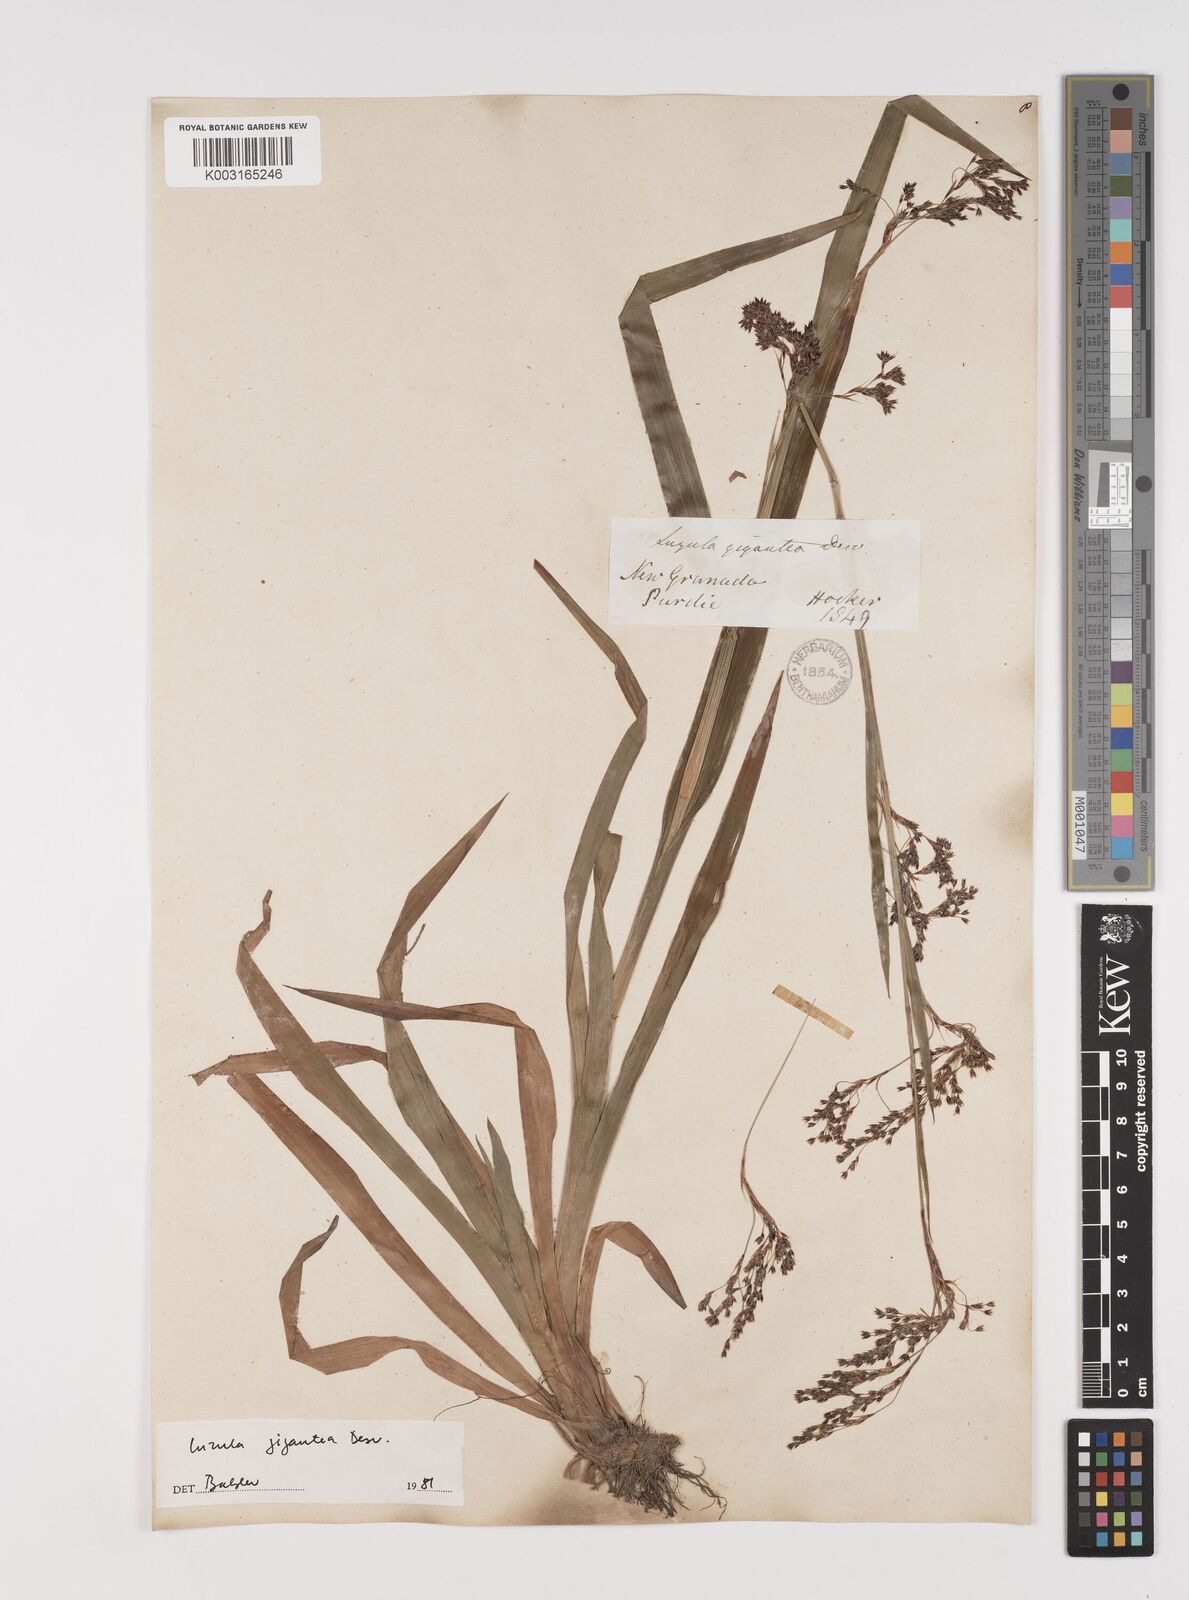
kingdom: Plantae
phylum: Tracheophyta
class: Liliopsida
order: Poales
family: Juncaceae
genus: Luzula
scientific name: Luzula gigantea
